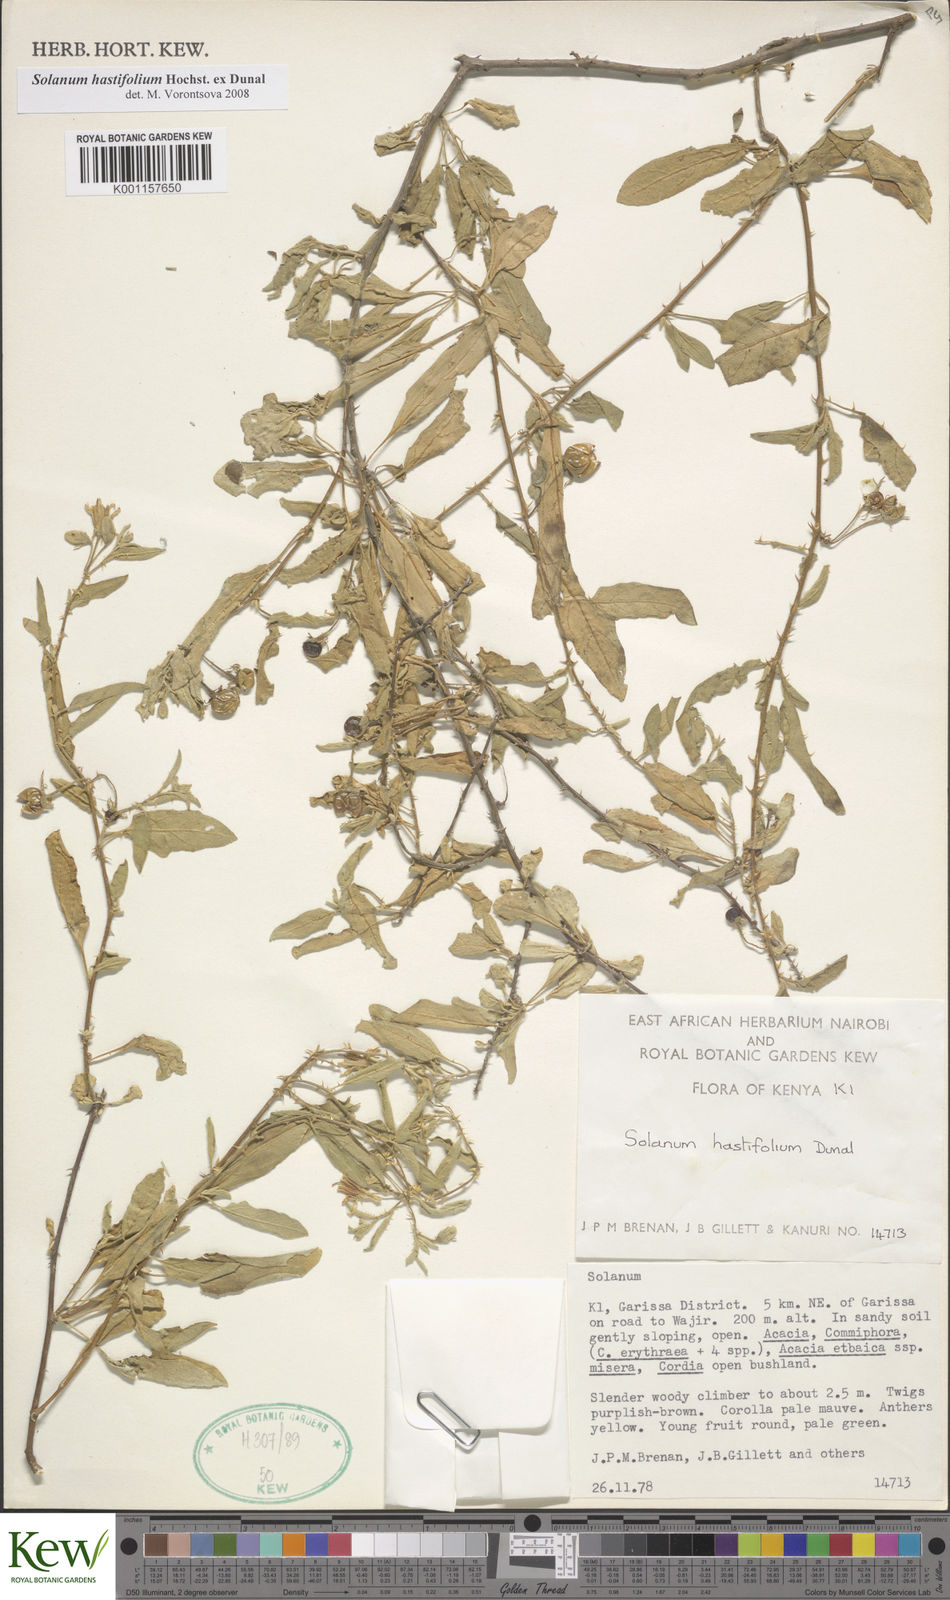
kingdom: Plantae
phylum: Tracheophyta
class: Magnoliopsida
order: Solanales
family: Solanaceae
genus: Solanum
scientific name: Solanum hastifolium
